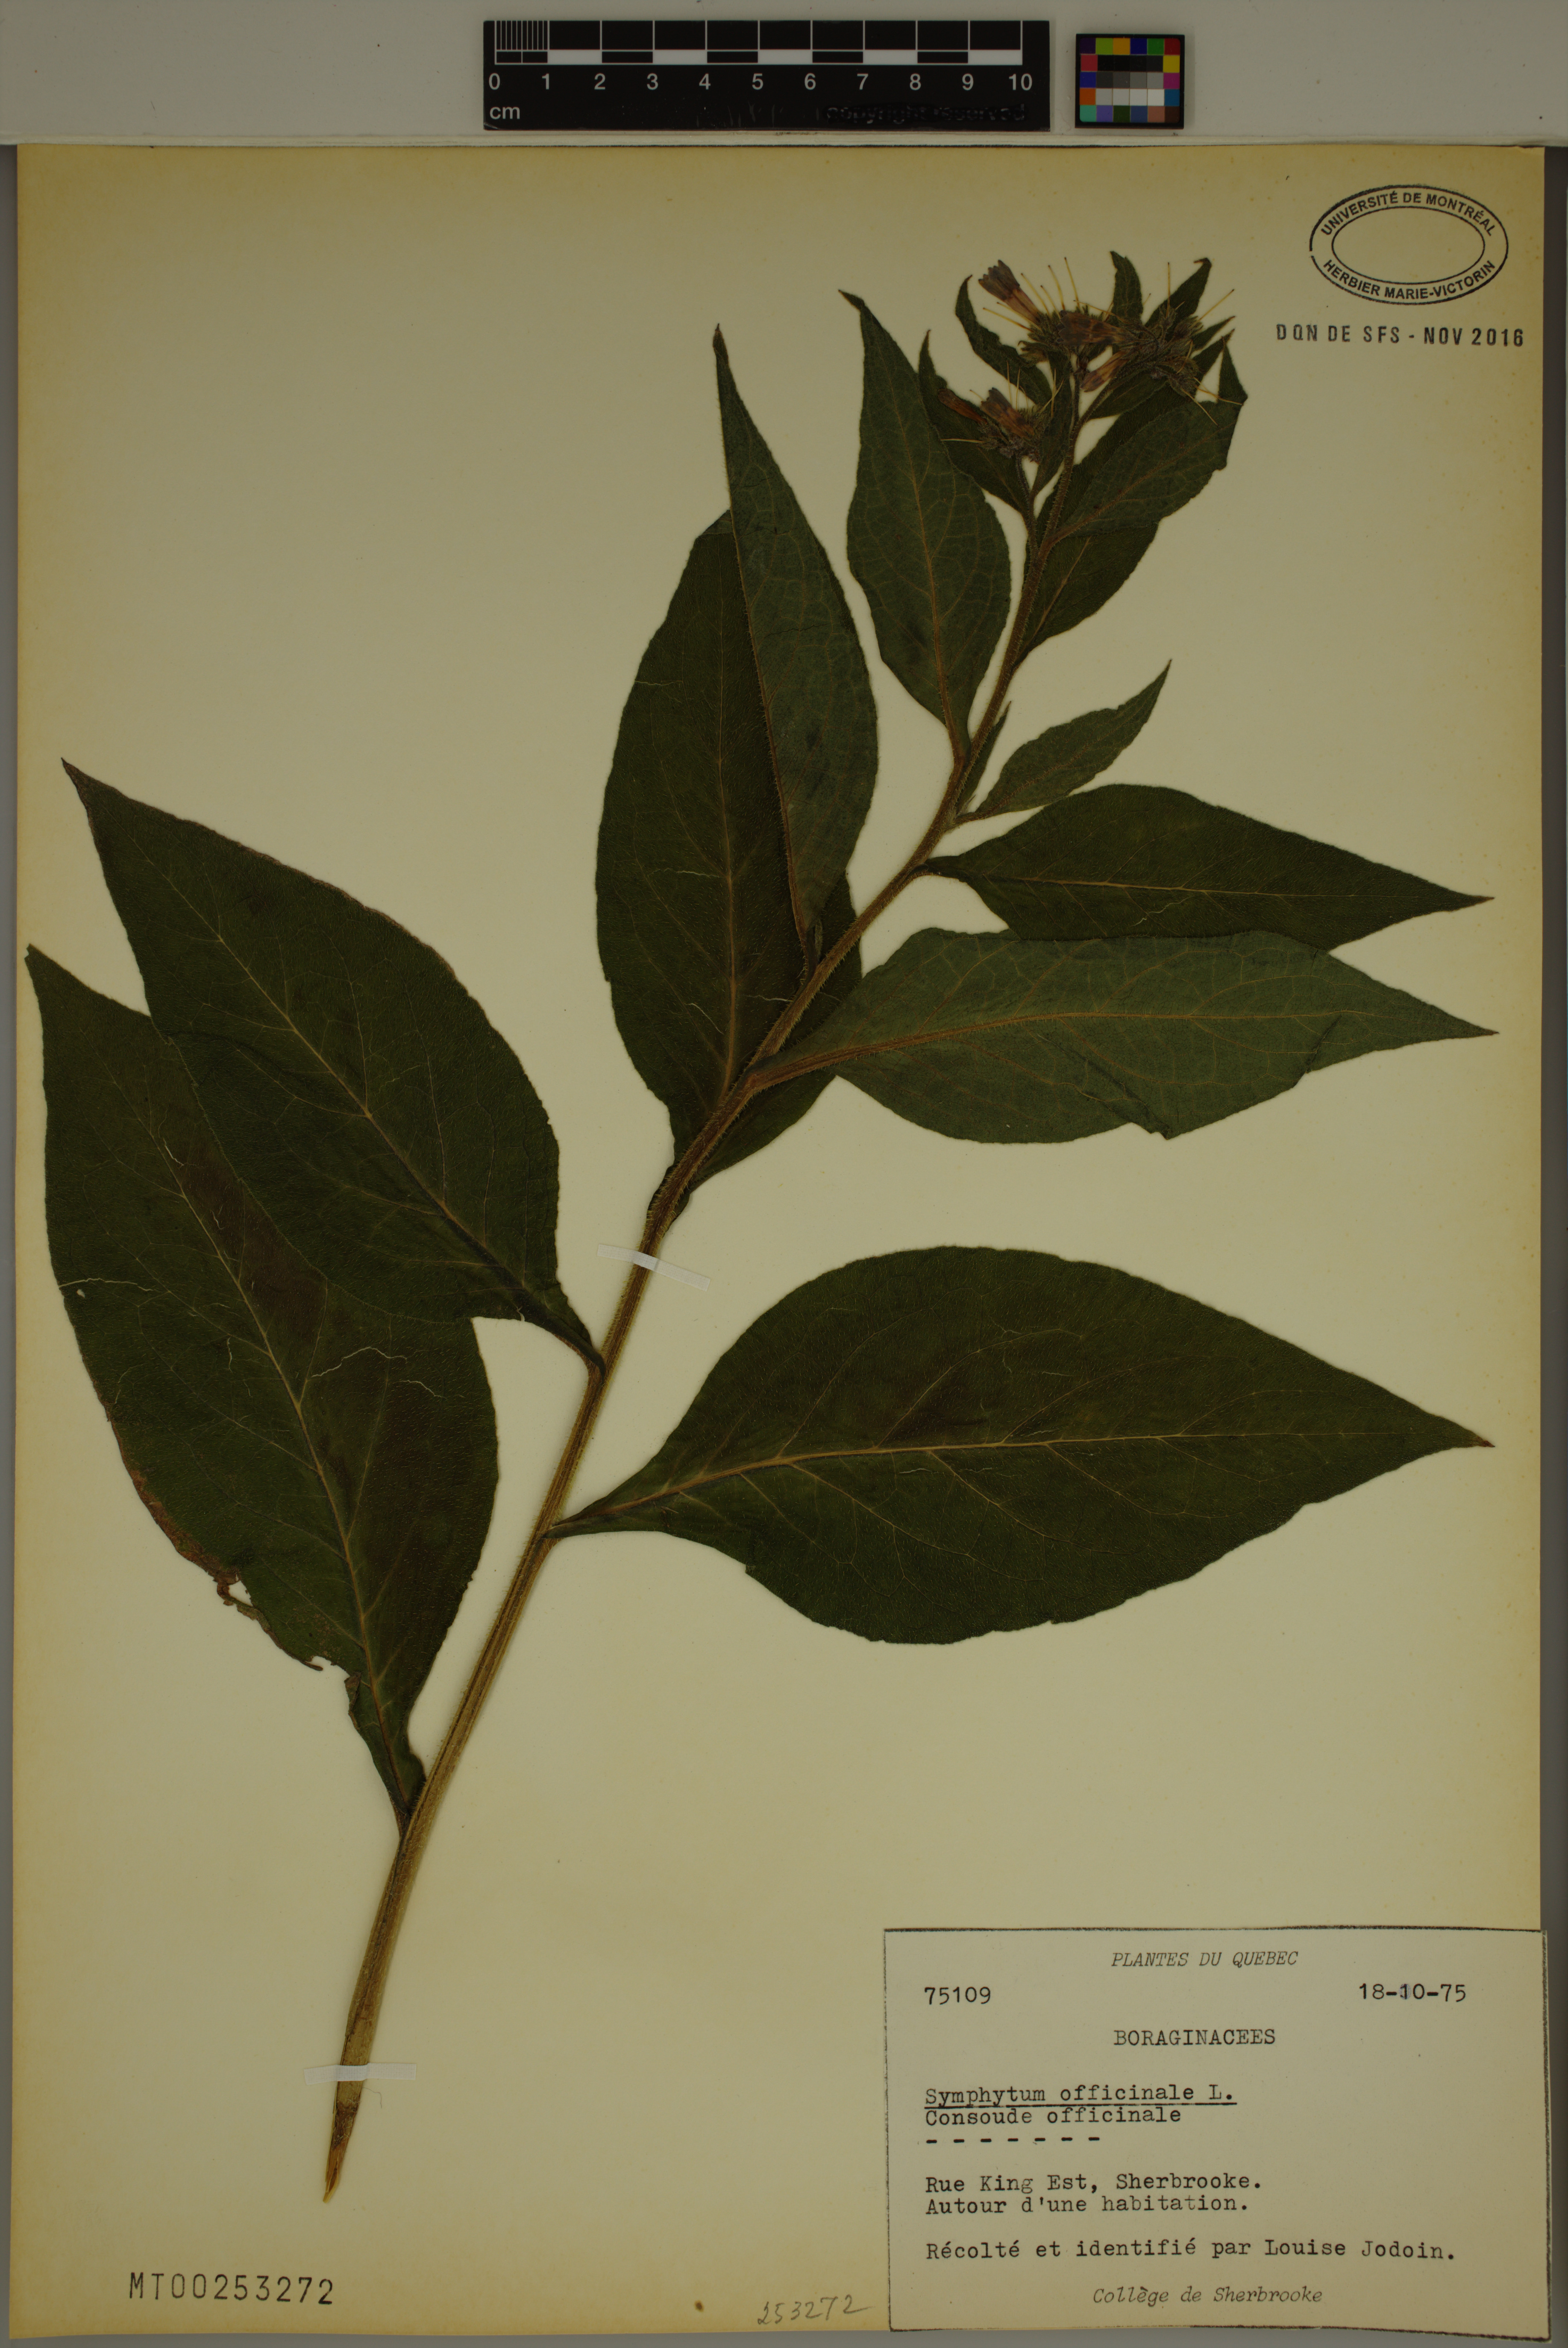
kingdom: Plantae
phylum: Tracheophyta
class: Magnoliopsida
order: Boraginales
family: Boraginaceae
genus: Symphytum
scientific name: Symphytum officinale
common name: Common comfrey
